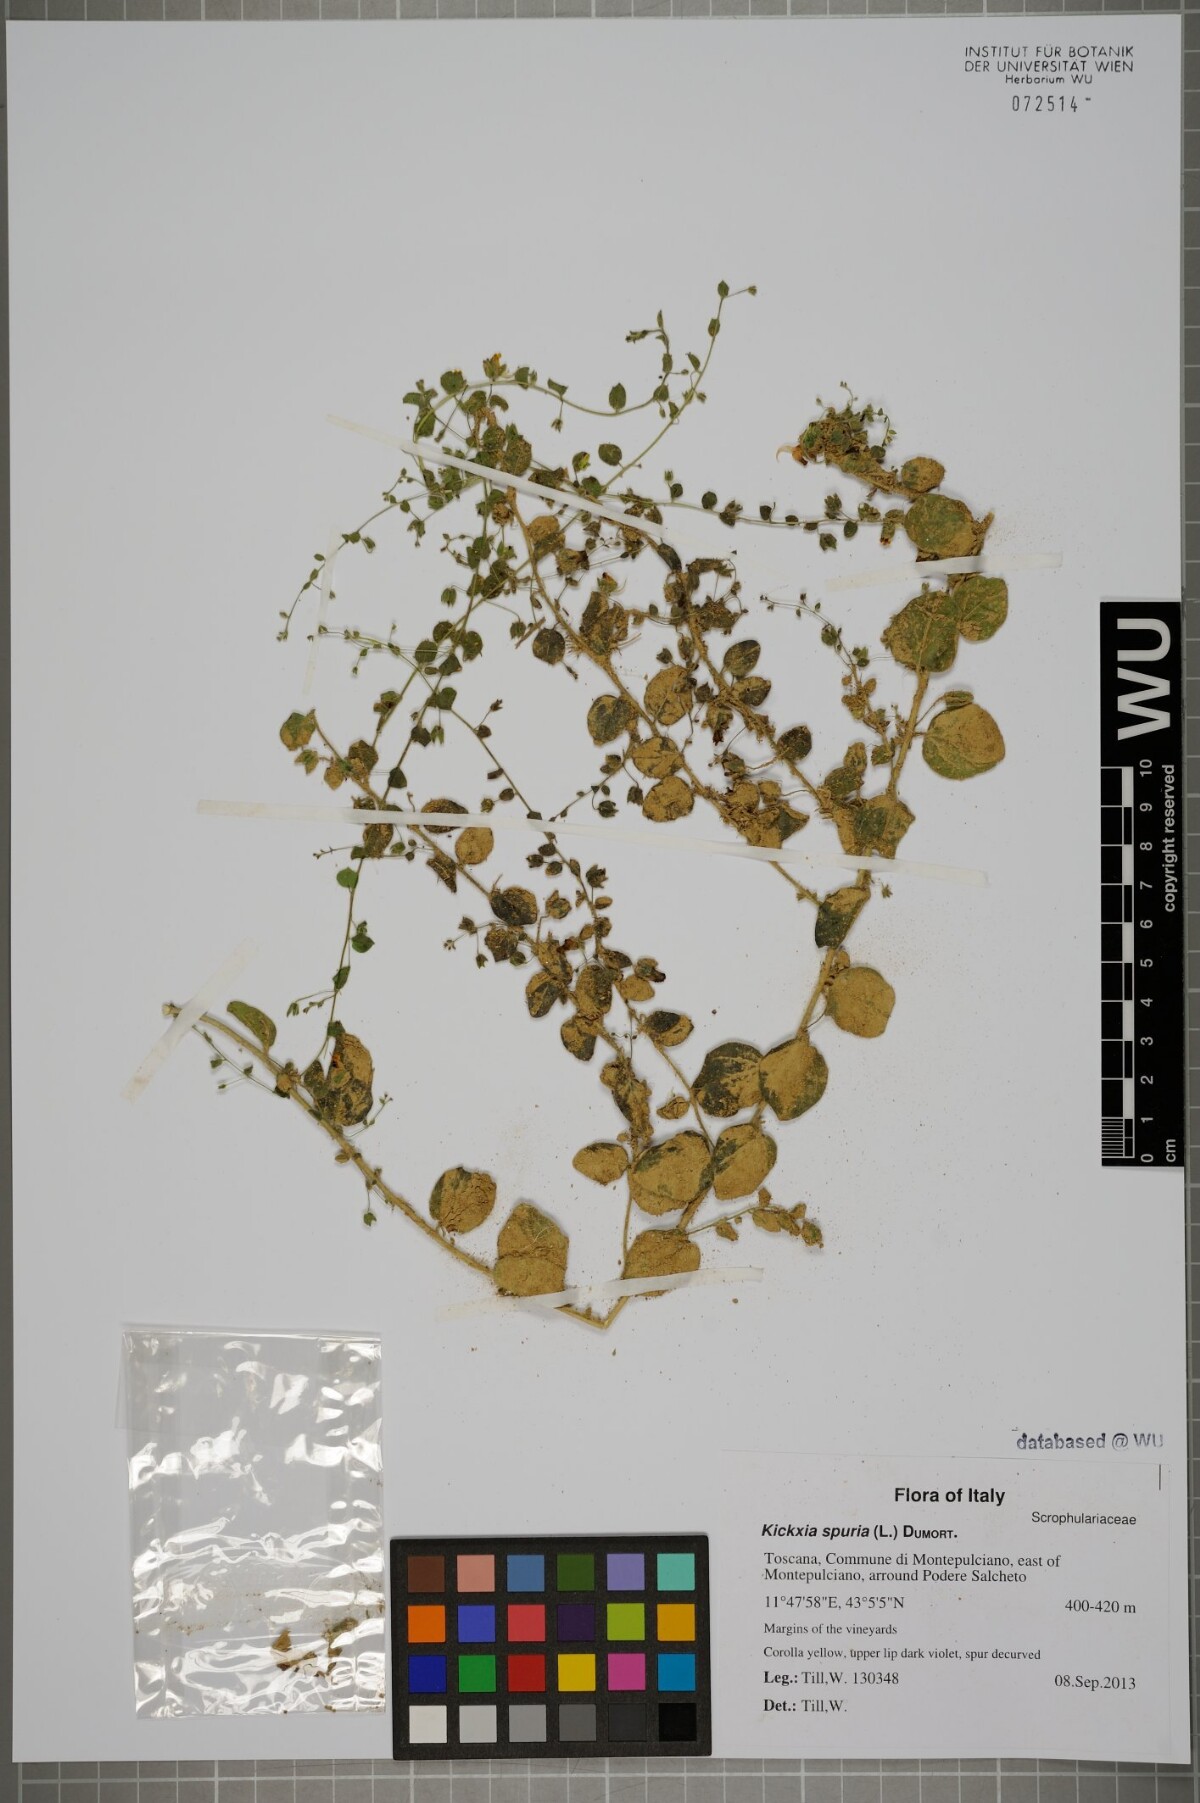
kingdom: Plantae
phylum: Tracheophyta
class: Magnoliopsida
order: Lamiales
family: Plantaginaceae
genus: Kickxia
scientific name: Kickxia spuria
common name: Round-leaved fluellen
